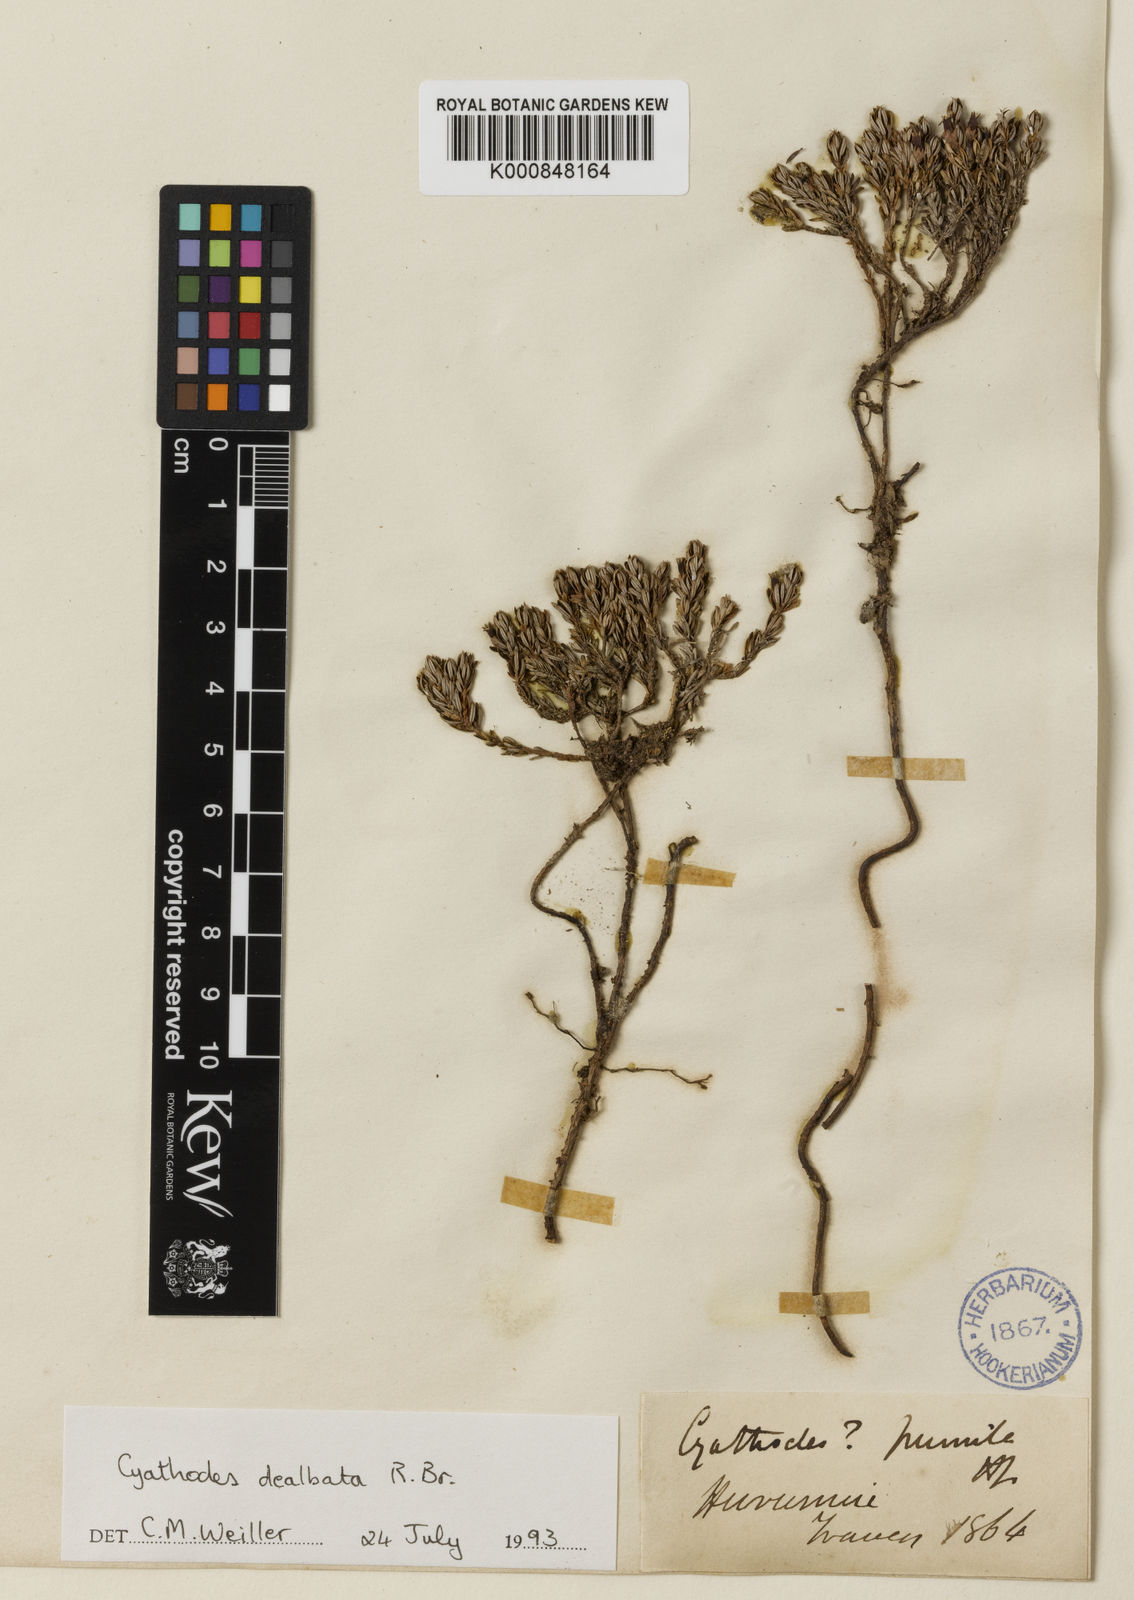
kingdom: Plantae
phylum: Tracheophyta
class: Magnoliopsida
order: Ericales
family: Ericaceae
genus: Montitega
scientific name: Montitega dealbata
